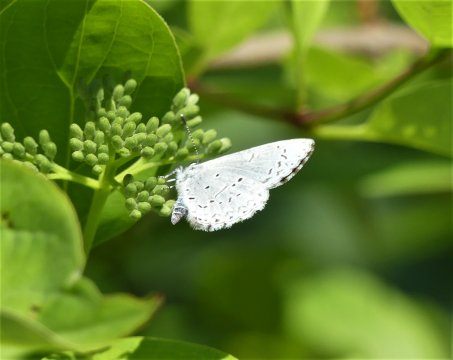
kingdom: Animalia
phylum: Arthropoda
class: Insecta
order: Lepidoptera
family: Lycaenidae
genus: Celastrina
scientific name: Celastrina
